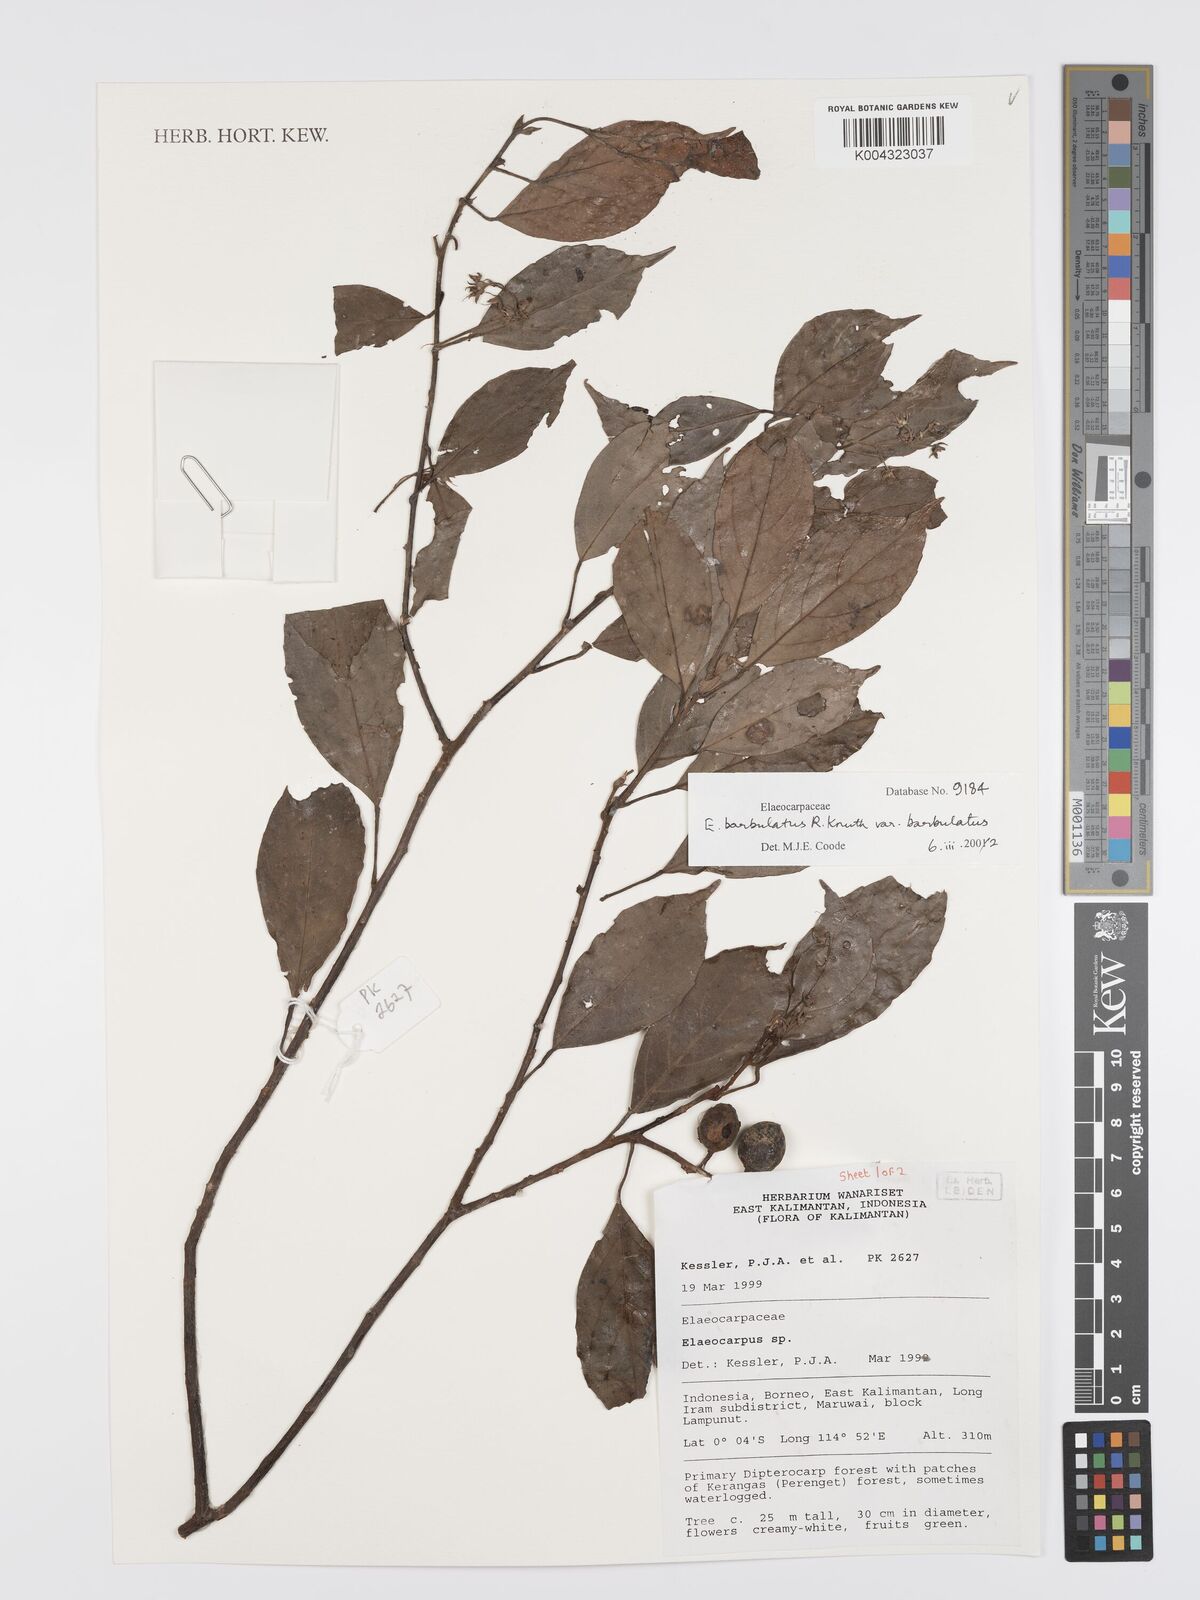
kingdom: Plantae
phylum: Tracheophyta
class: Magnoliopsida
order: Oxalidales
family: Elaeocarpaceae
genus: Elaeocarpus
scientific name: Elaeocarpus barbulatus
